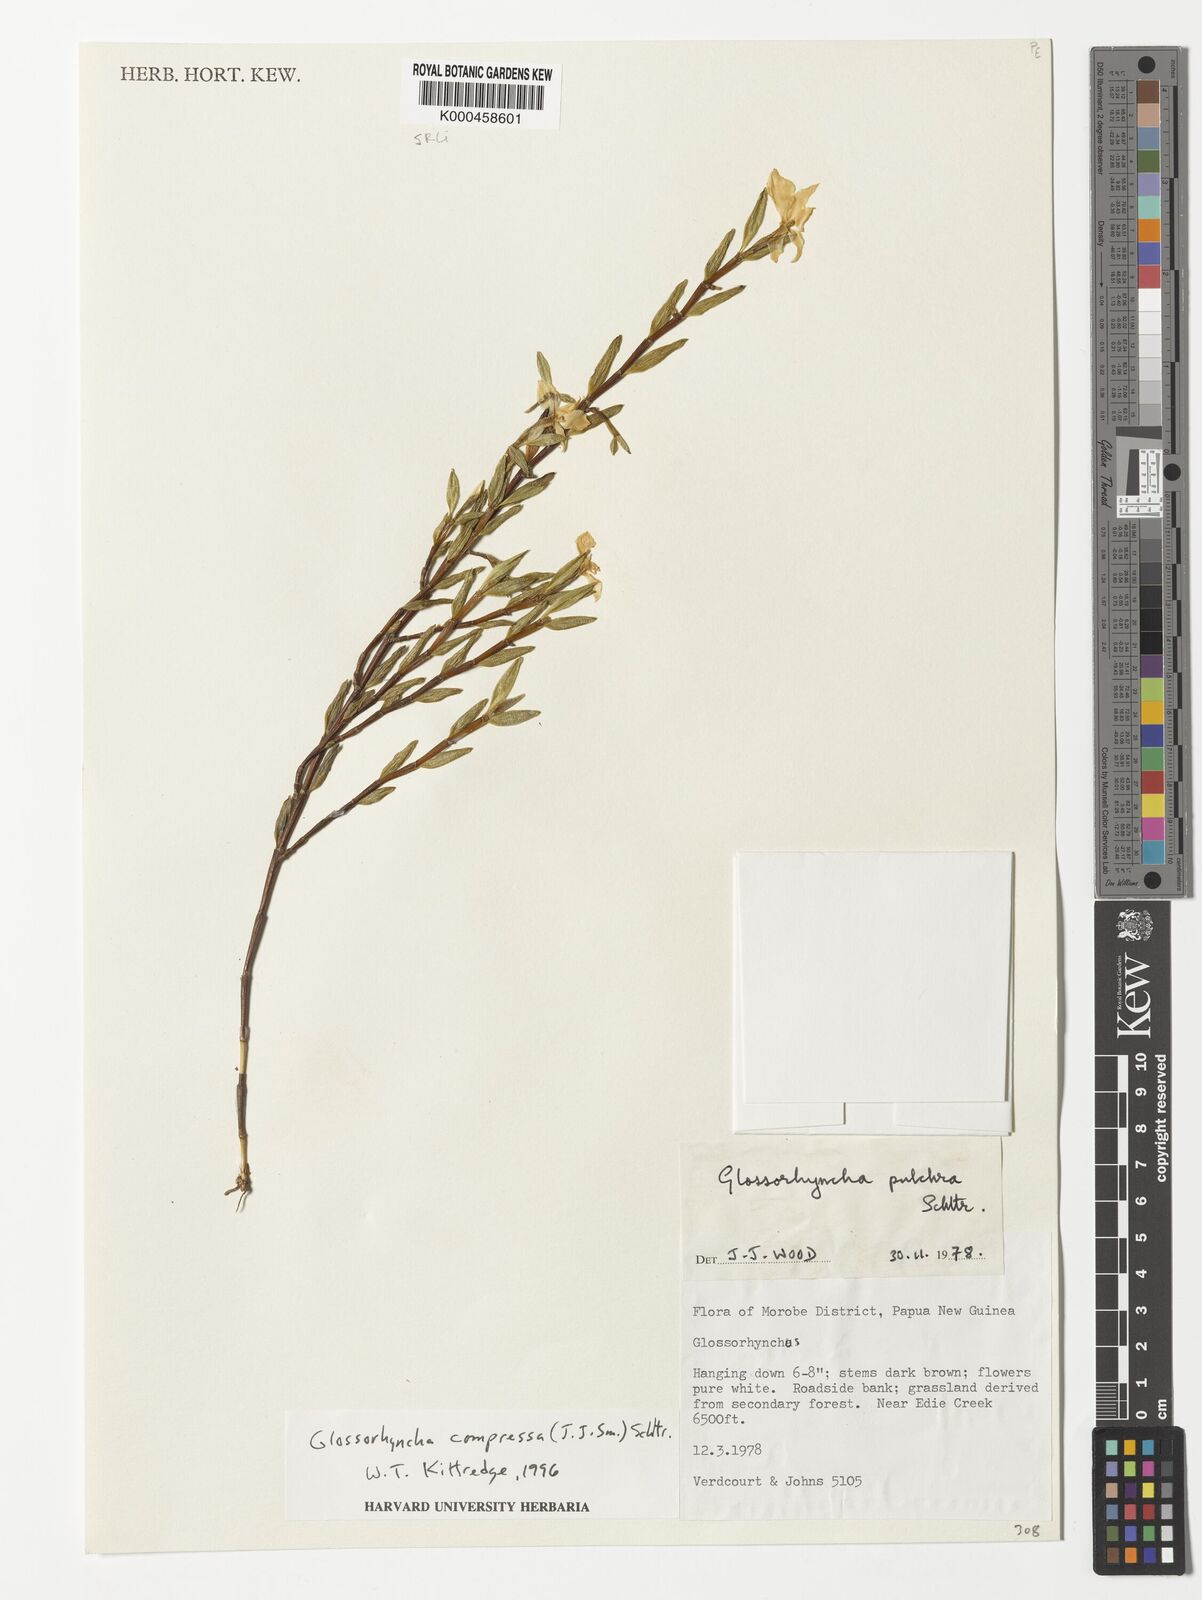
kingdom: Plantae
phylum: Tracheophyta
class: Liliopsida
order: Asparagales
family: Orchidaceae
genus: Glomera
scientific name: Glomera compressa
